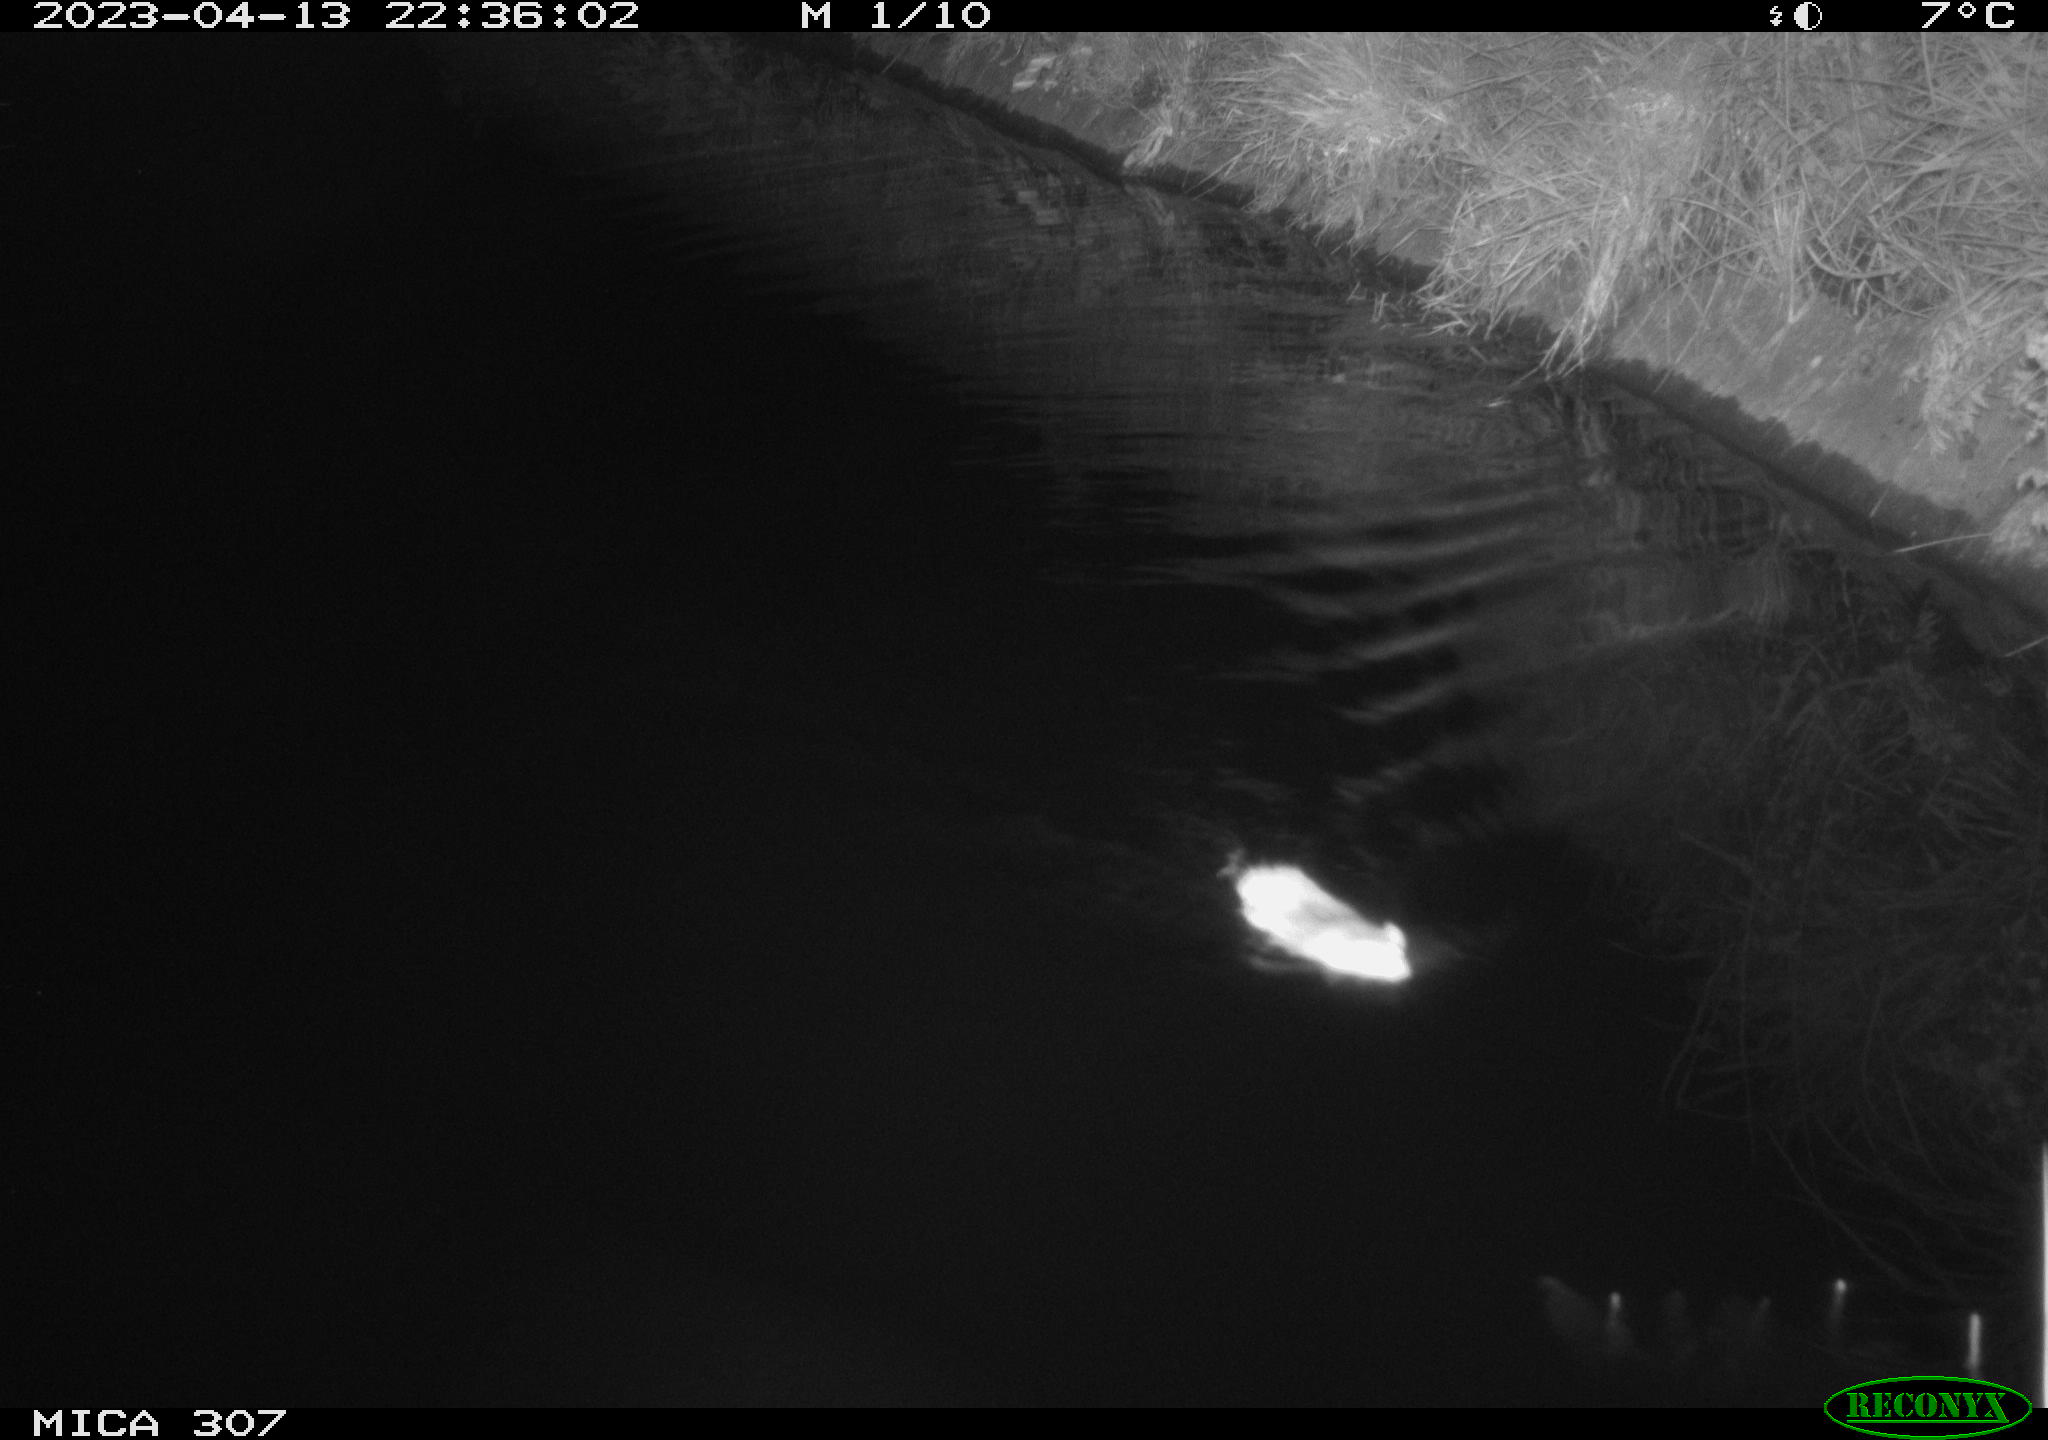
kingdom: Animalia
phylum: Chordata
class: Mammalia
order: Rodentia
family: Cricetidae
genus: Ondatra
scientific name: Ondatra zibethicus
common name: Muskrat
